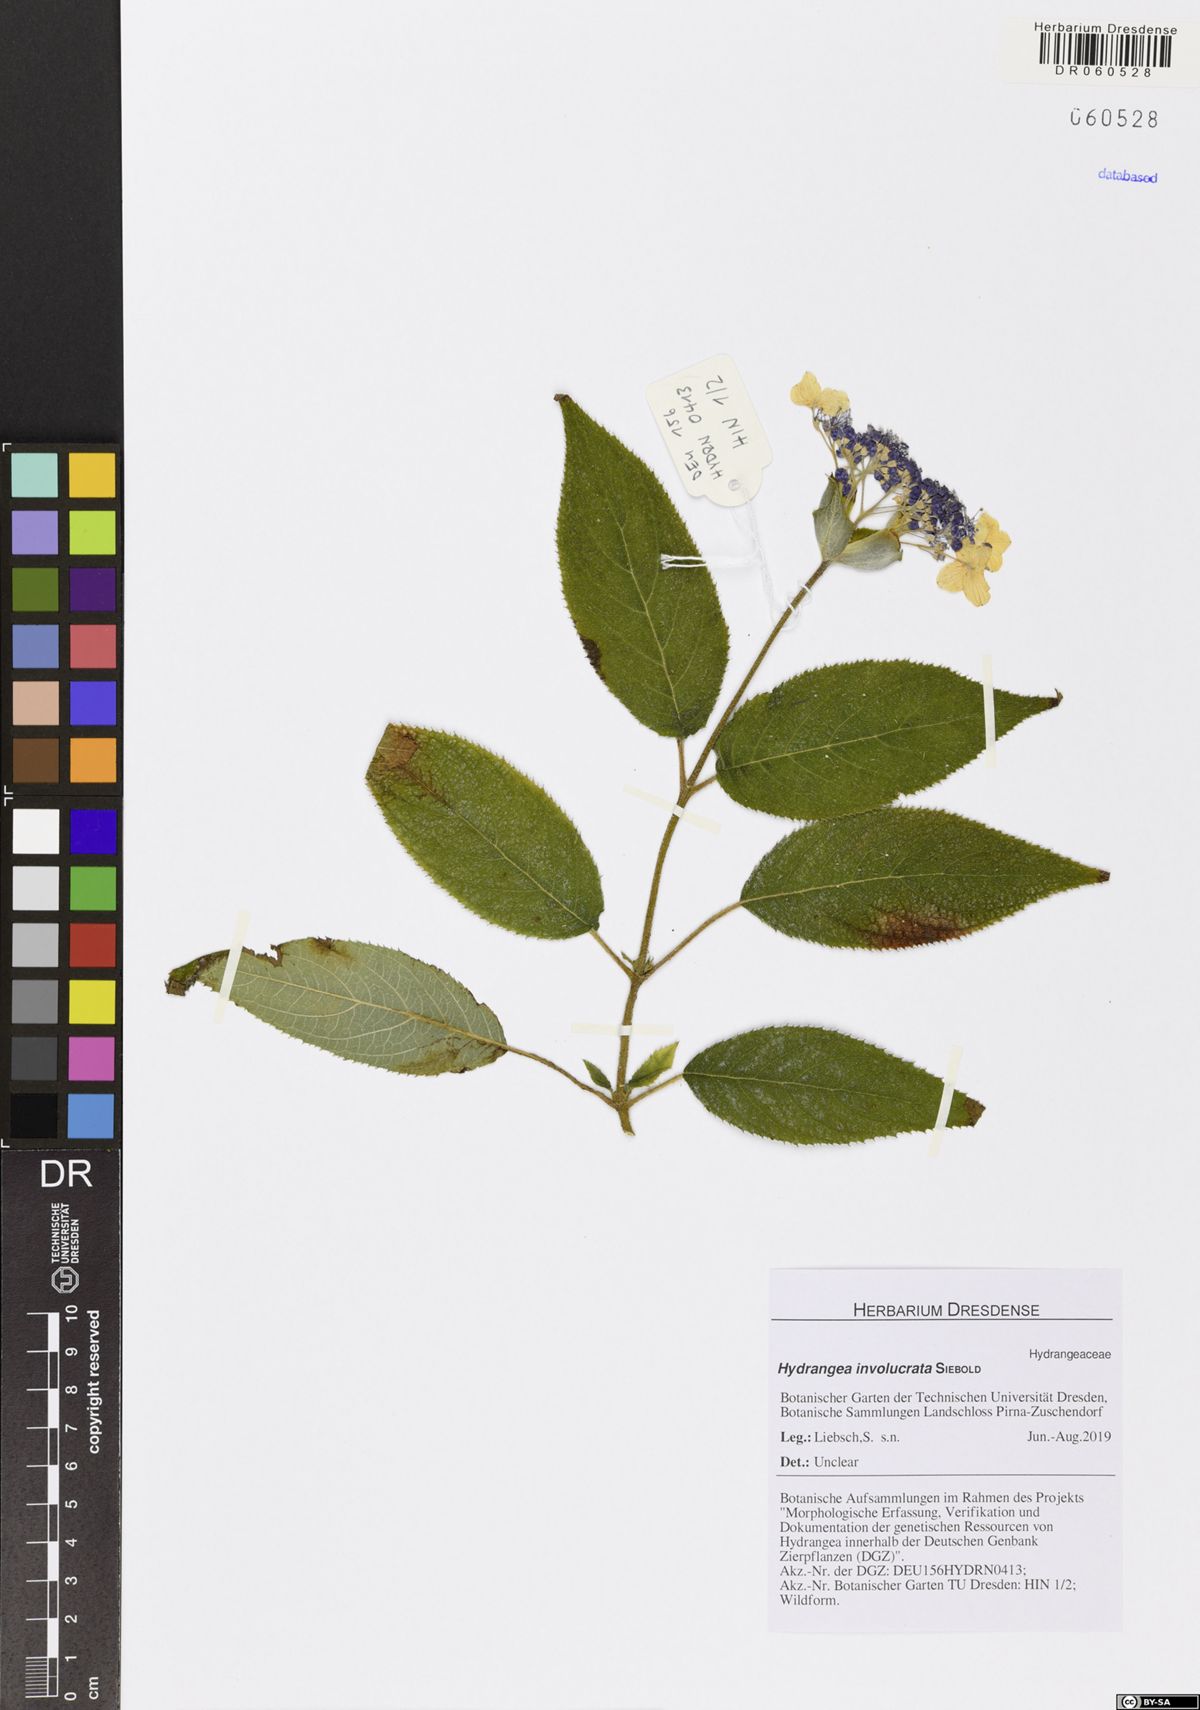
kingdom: Plantae
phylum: Tracheophyta
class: Magnoliopsida
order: Cornales
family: Hydrangeaceae
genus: Hydrangea
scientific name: Hydrangea involucrata
